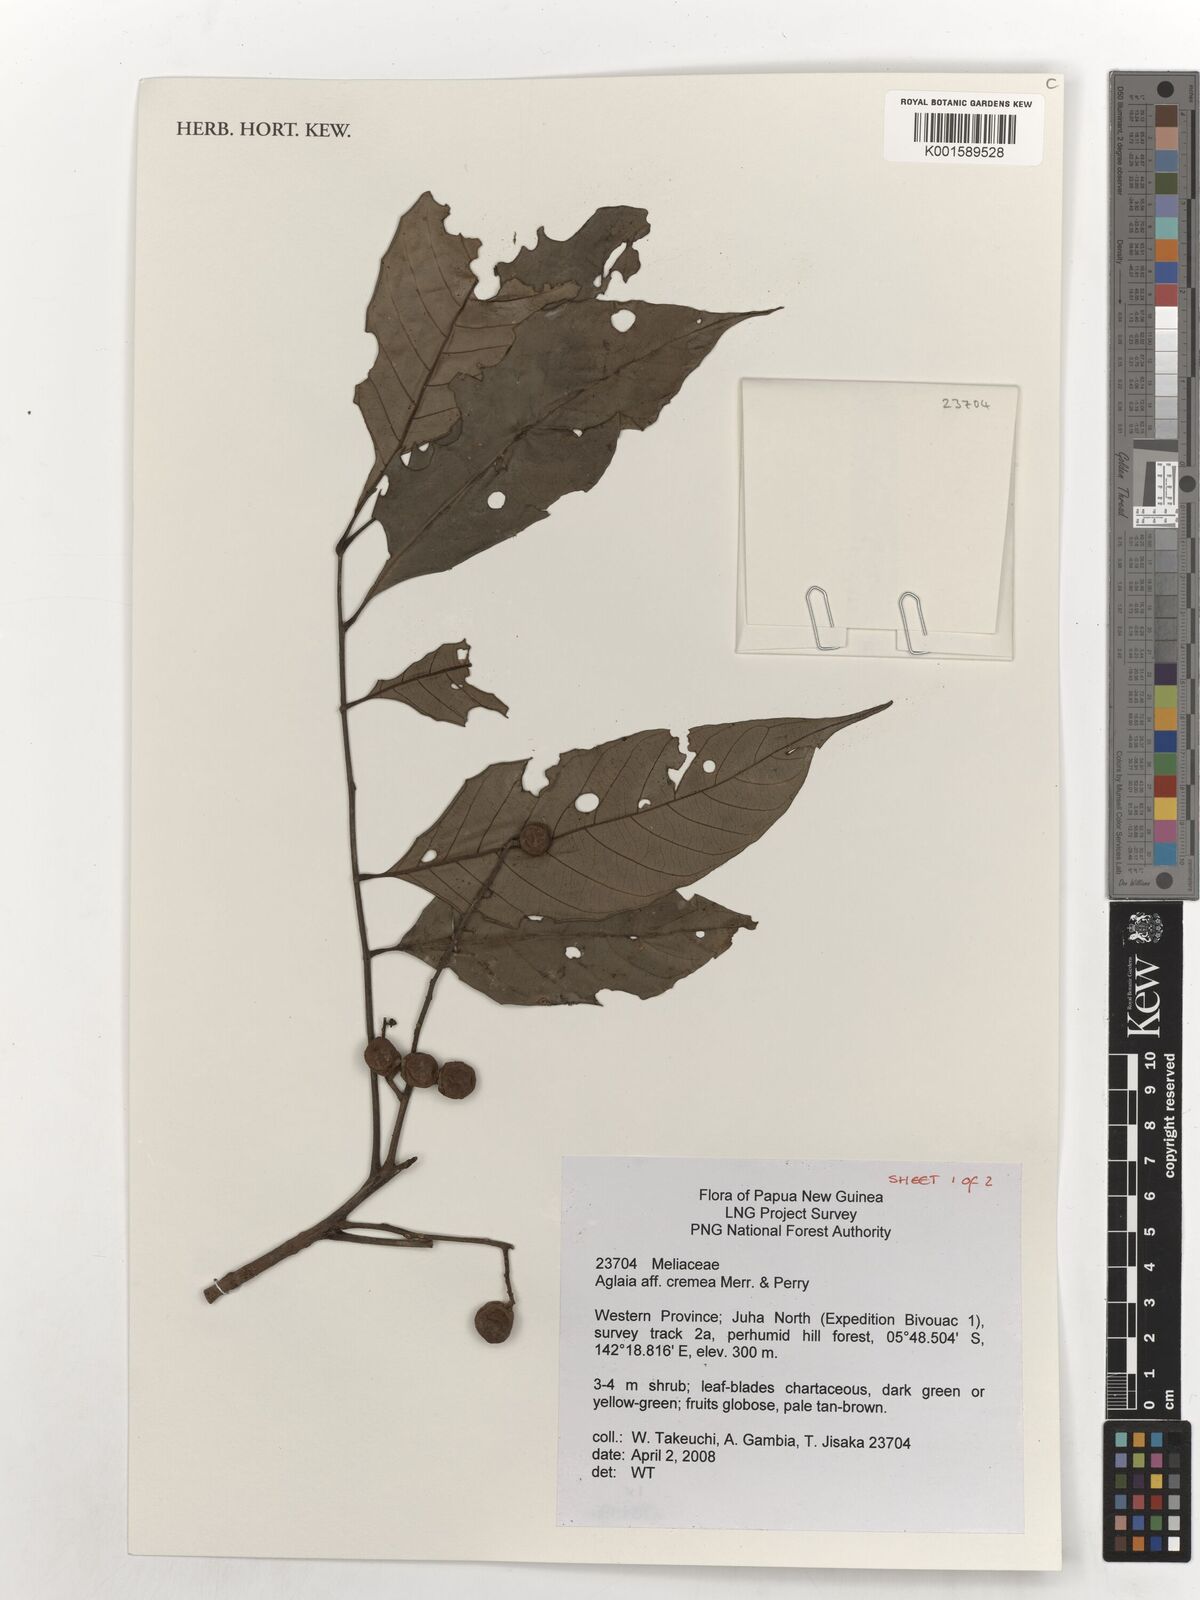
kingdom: Plantae
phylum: Tracheophyta
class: Magnoliopsida
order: Sapindales
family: Meliaceae
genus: Aglaia
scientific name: Aglaia cremea
